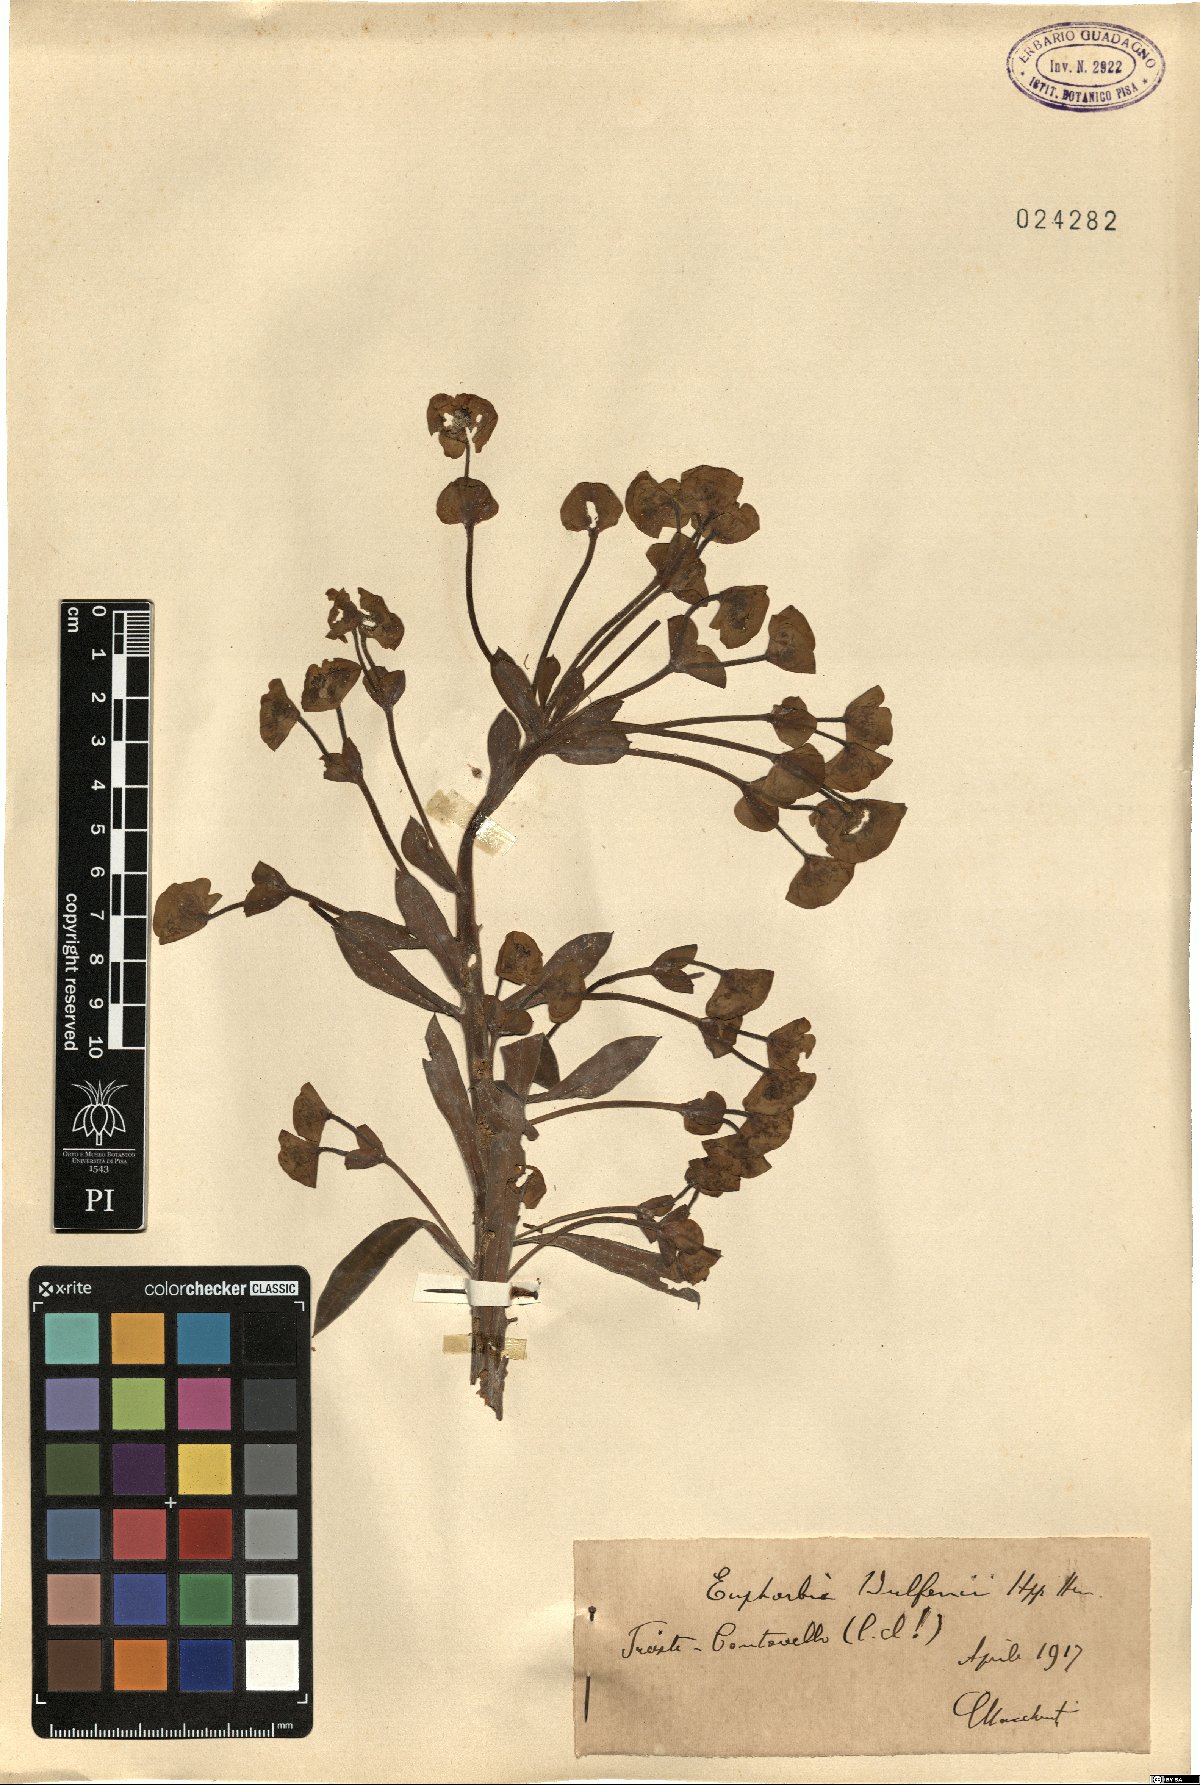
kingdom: Plantae
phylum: Tracheophyta
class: Magnoliopsida
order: Malpighiales
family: Euphorbiaceae
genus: Euphorbia
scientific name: Euphorbia characias
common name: Mediterranean spurge
